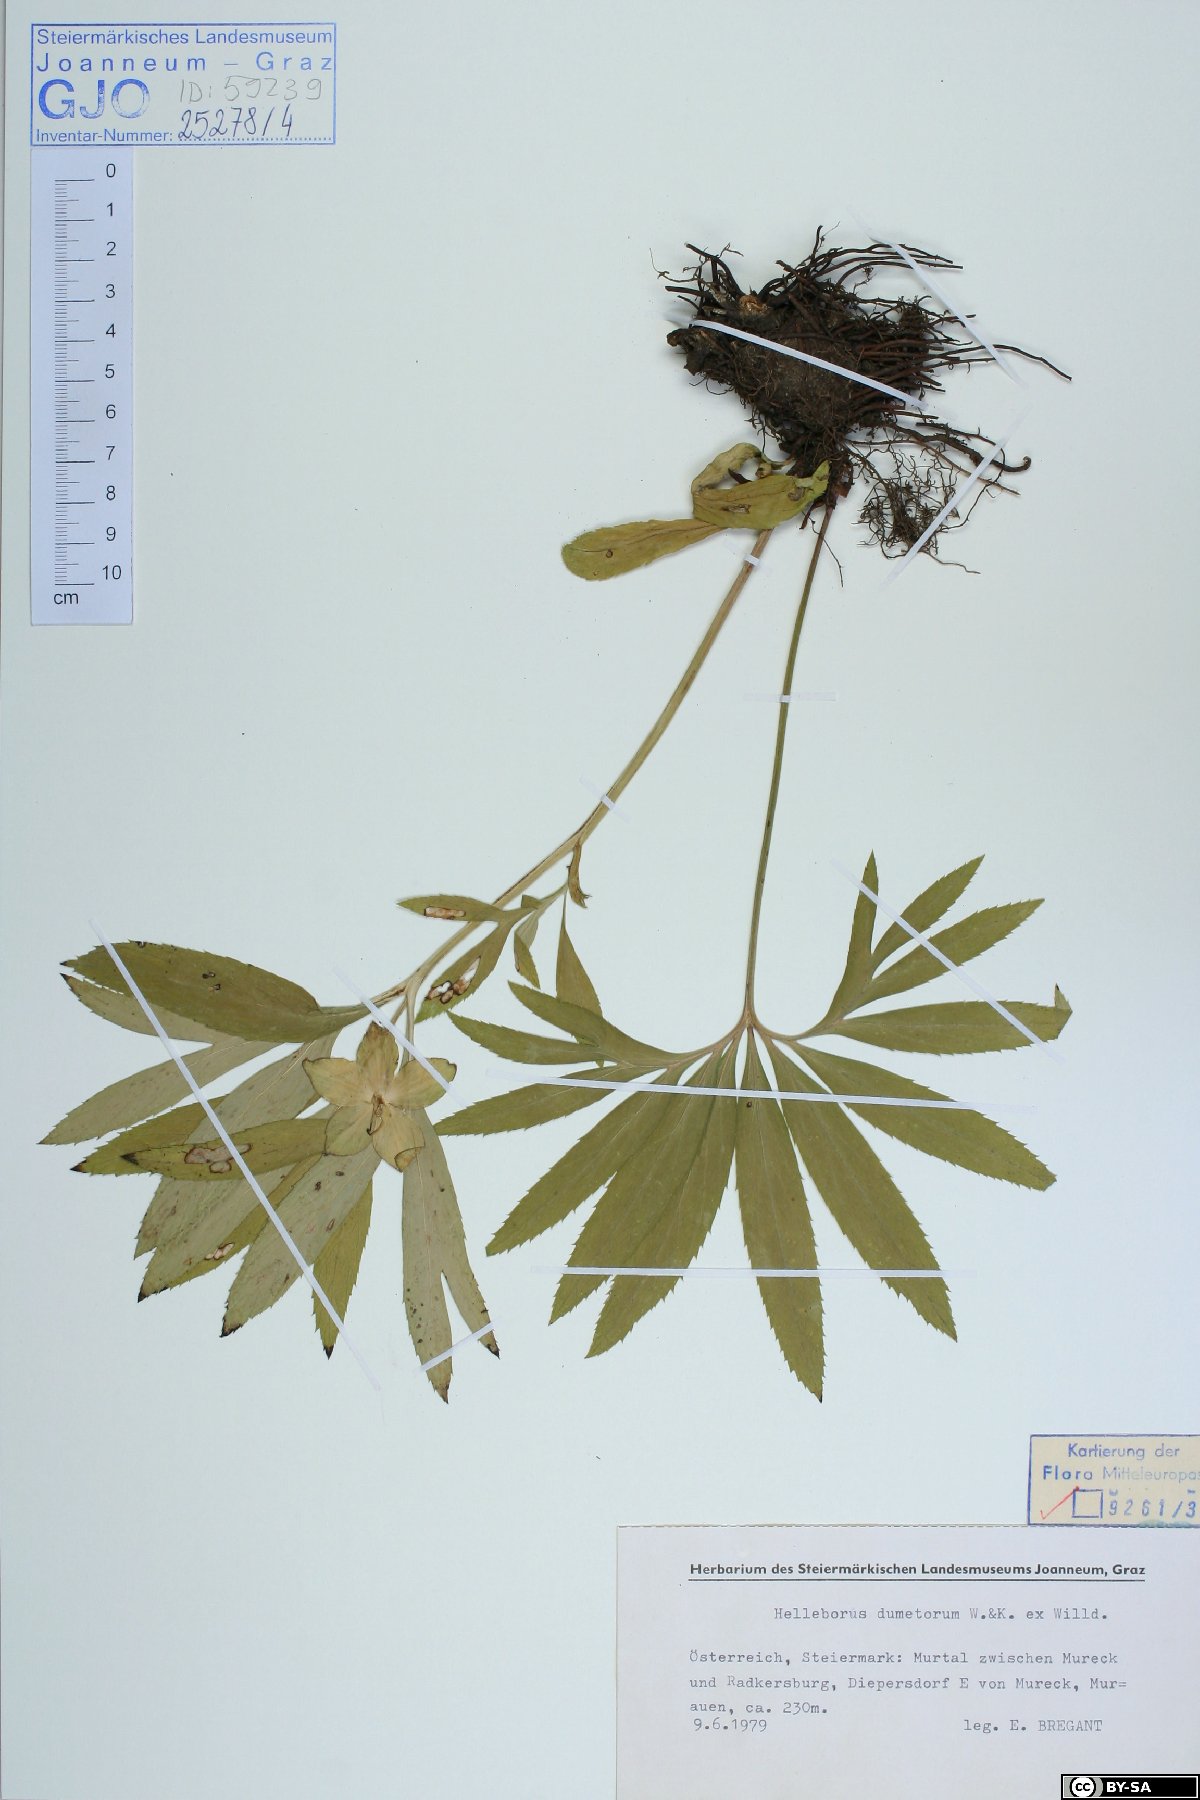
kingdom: Plantae
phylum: Tracheophyta
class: Magnoliopsida
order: Ranunculales
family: Ranunculaceae
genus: Helleborus
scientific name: Helleborus dumetorum
